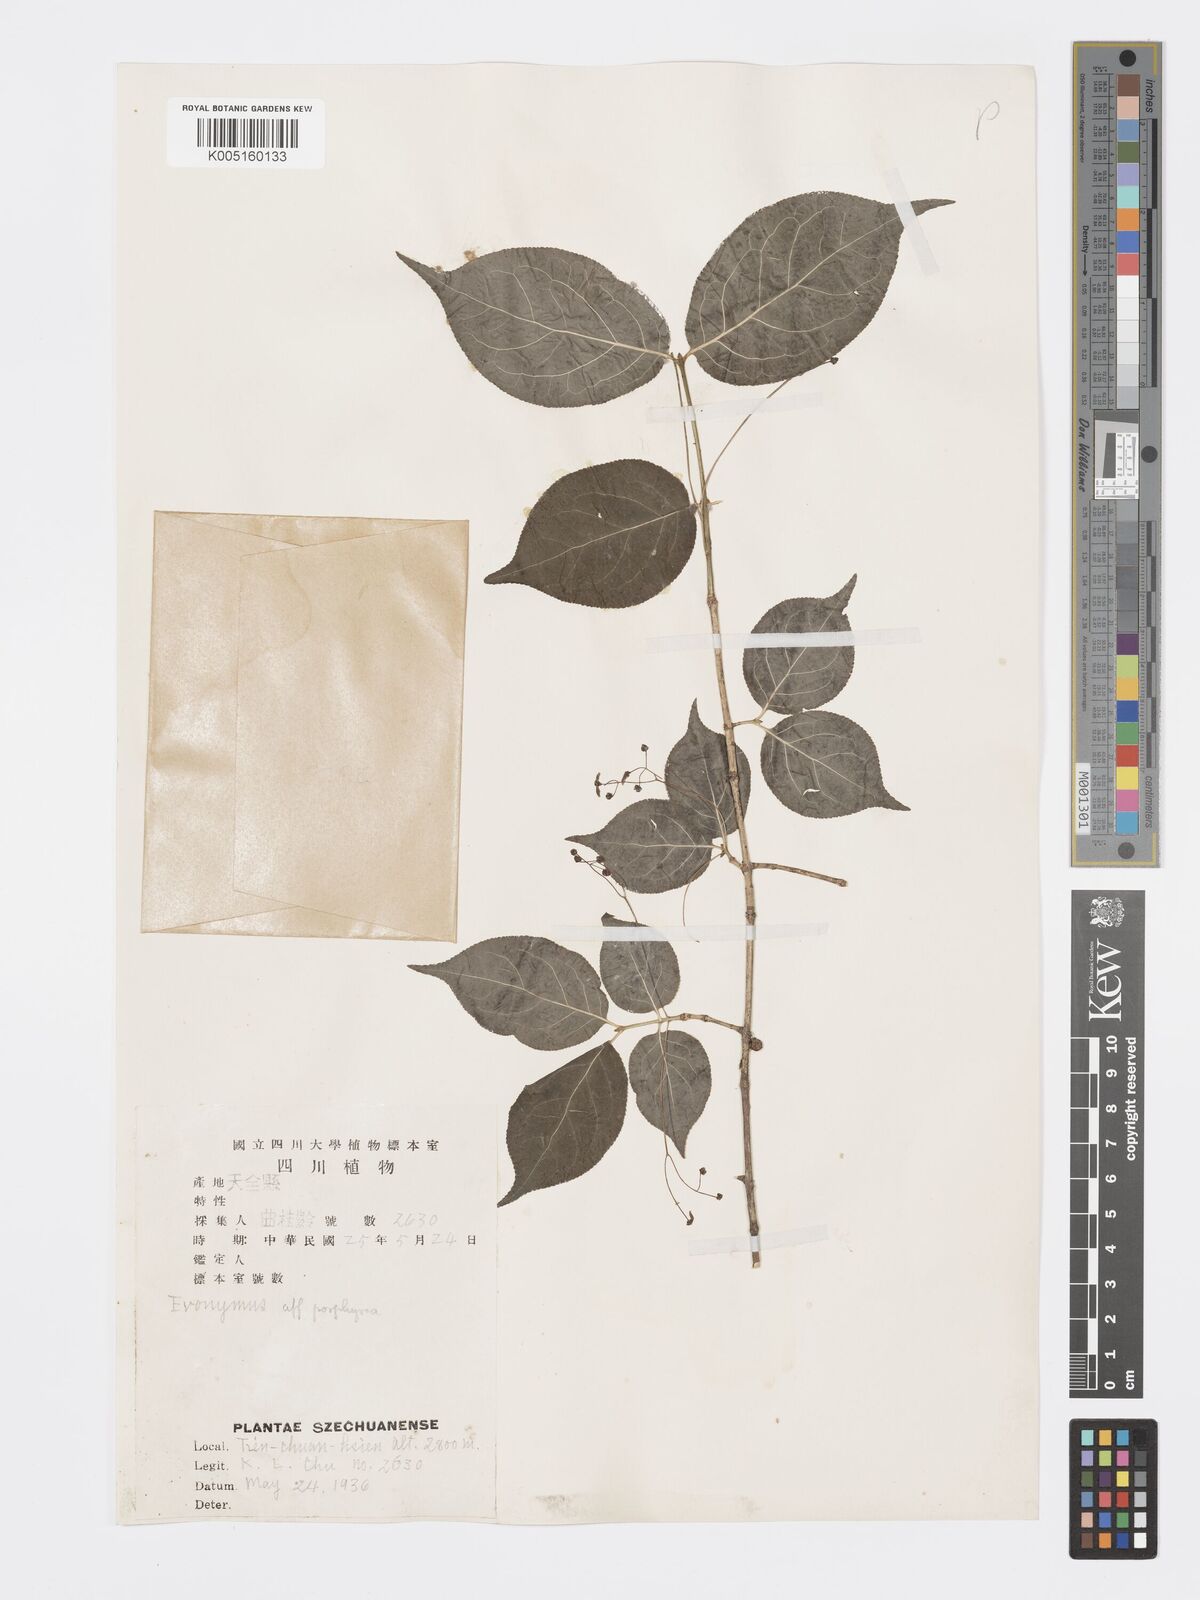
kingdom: Plantae
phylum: Tracheophyta
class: Magnoliopsida
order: Celastrales
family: Celastraceae
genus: Euonymus
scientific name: Euonymus frigidus
